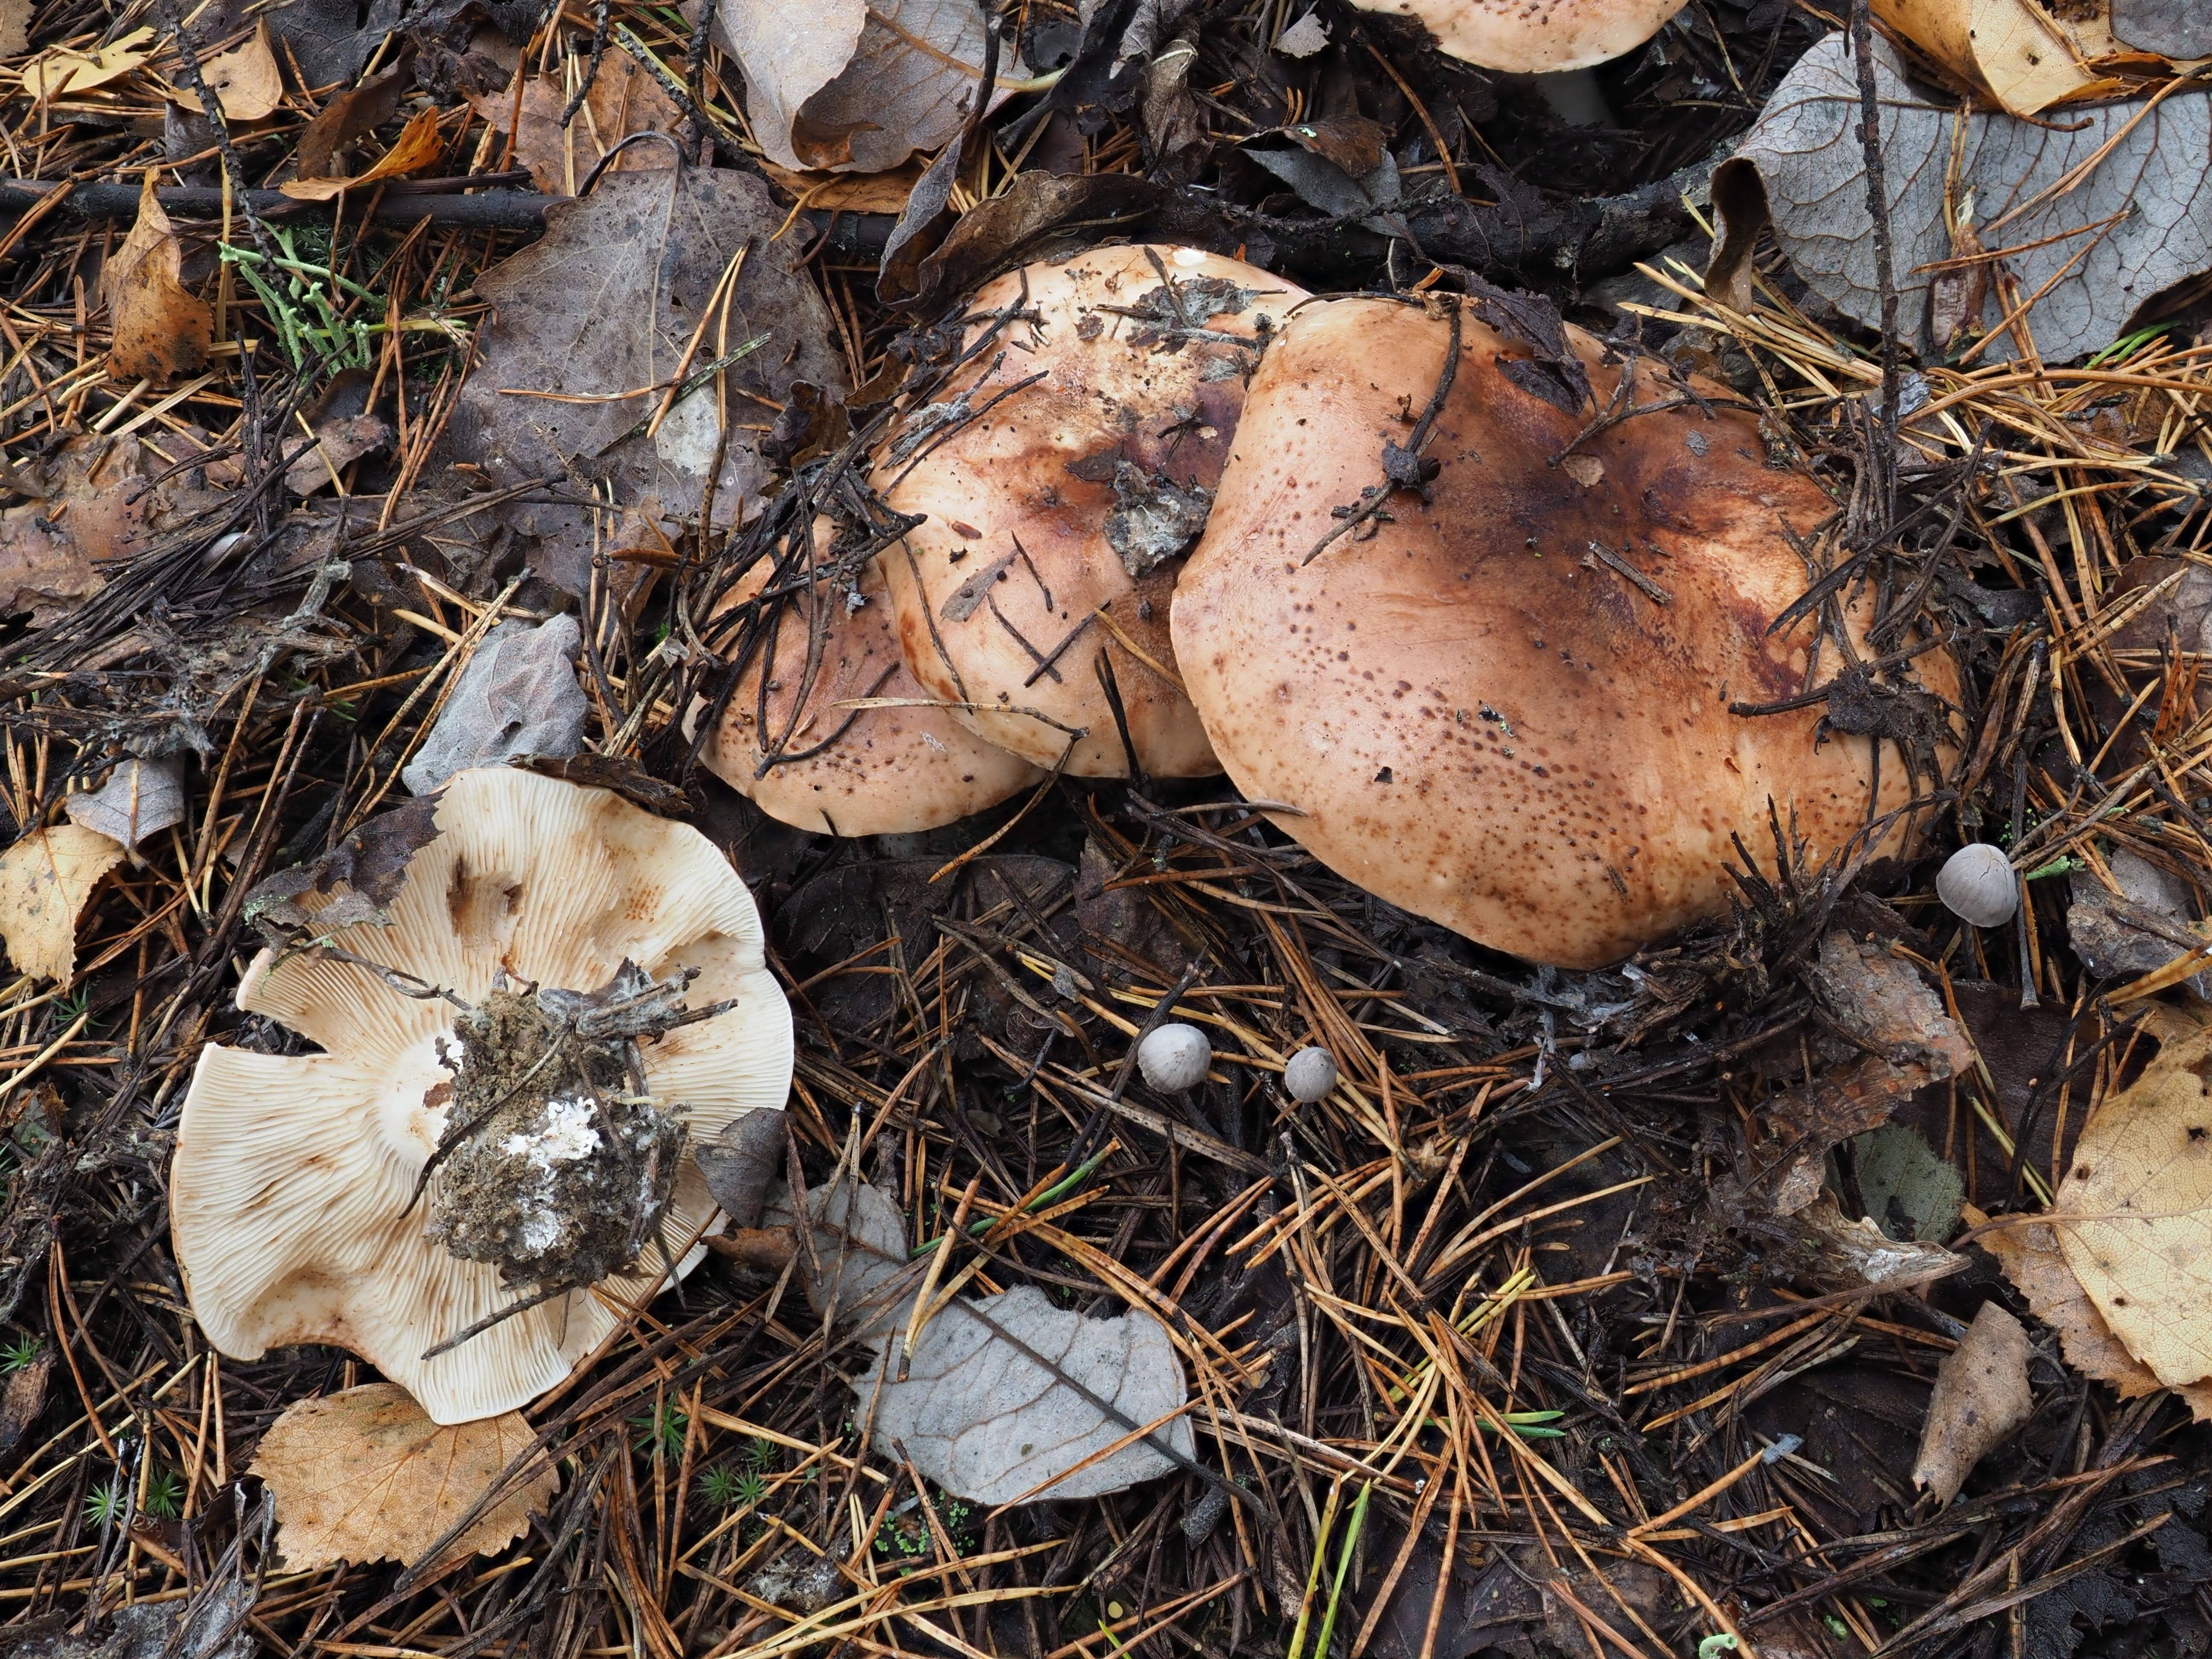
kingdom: Fungi
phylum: Basidiomycota
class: Agaricomycetes
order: Agaricales
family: Tricholomataceae
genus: Tricholoma
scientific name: Tricholoma pessundatum
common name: Tacked knight
